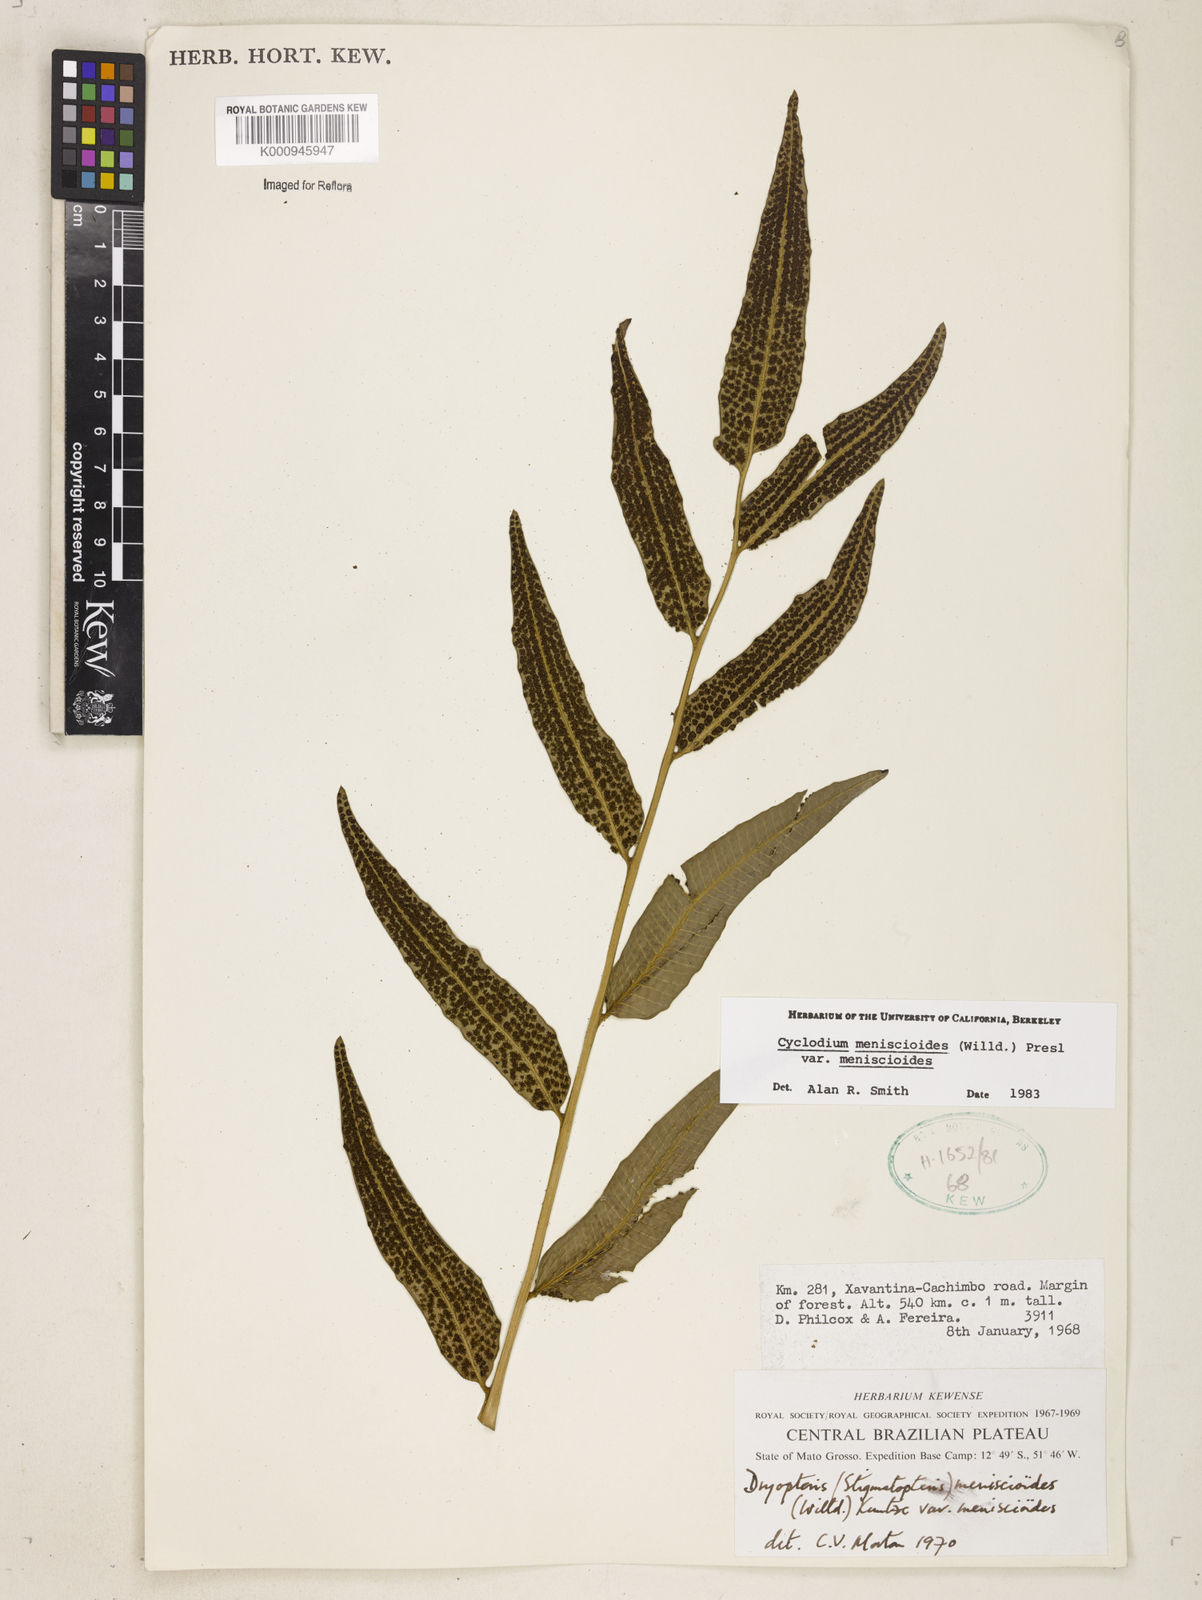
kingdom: Plantae
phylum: Tracheophyta
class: Polypodiopsida
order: Polypodiales
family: Dryopteridaceae
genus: Cyclodium
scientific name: Cyclodium meniscioides
